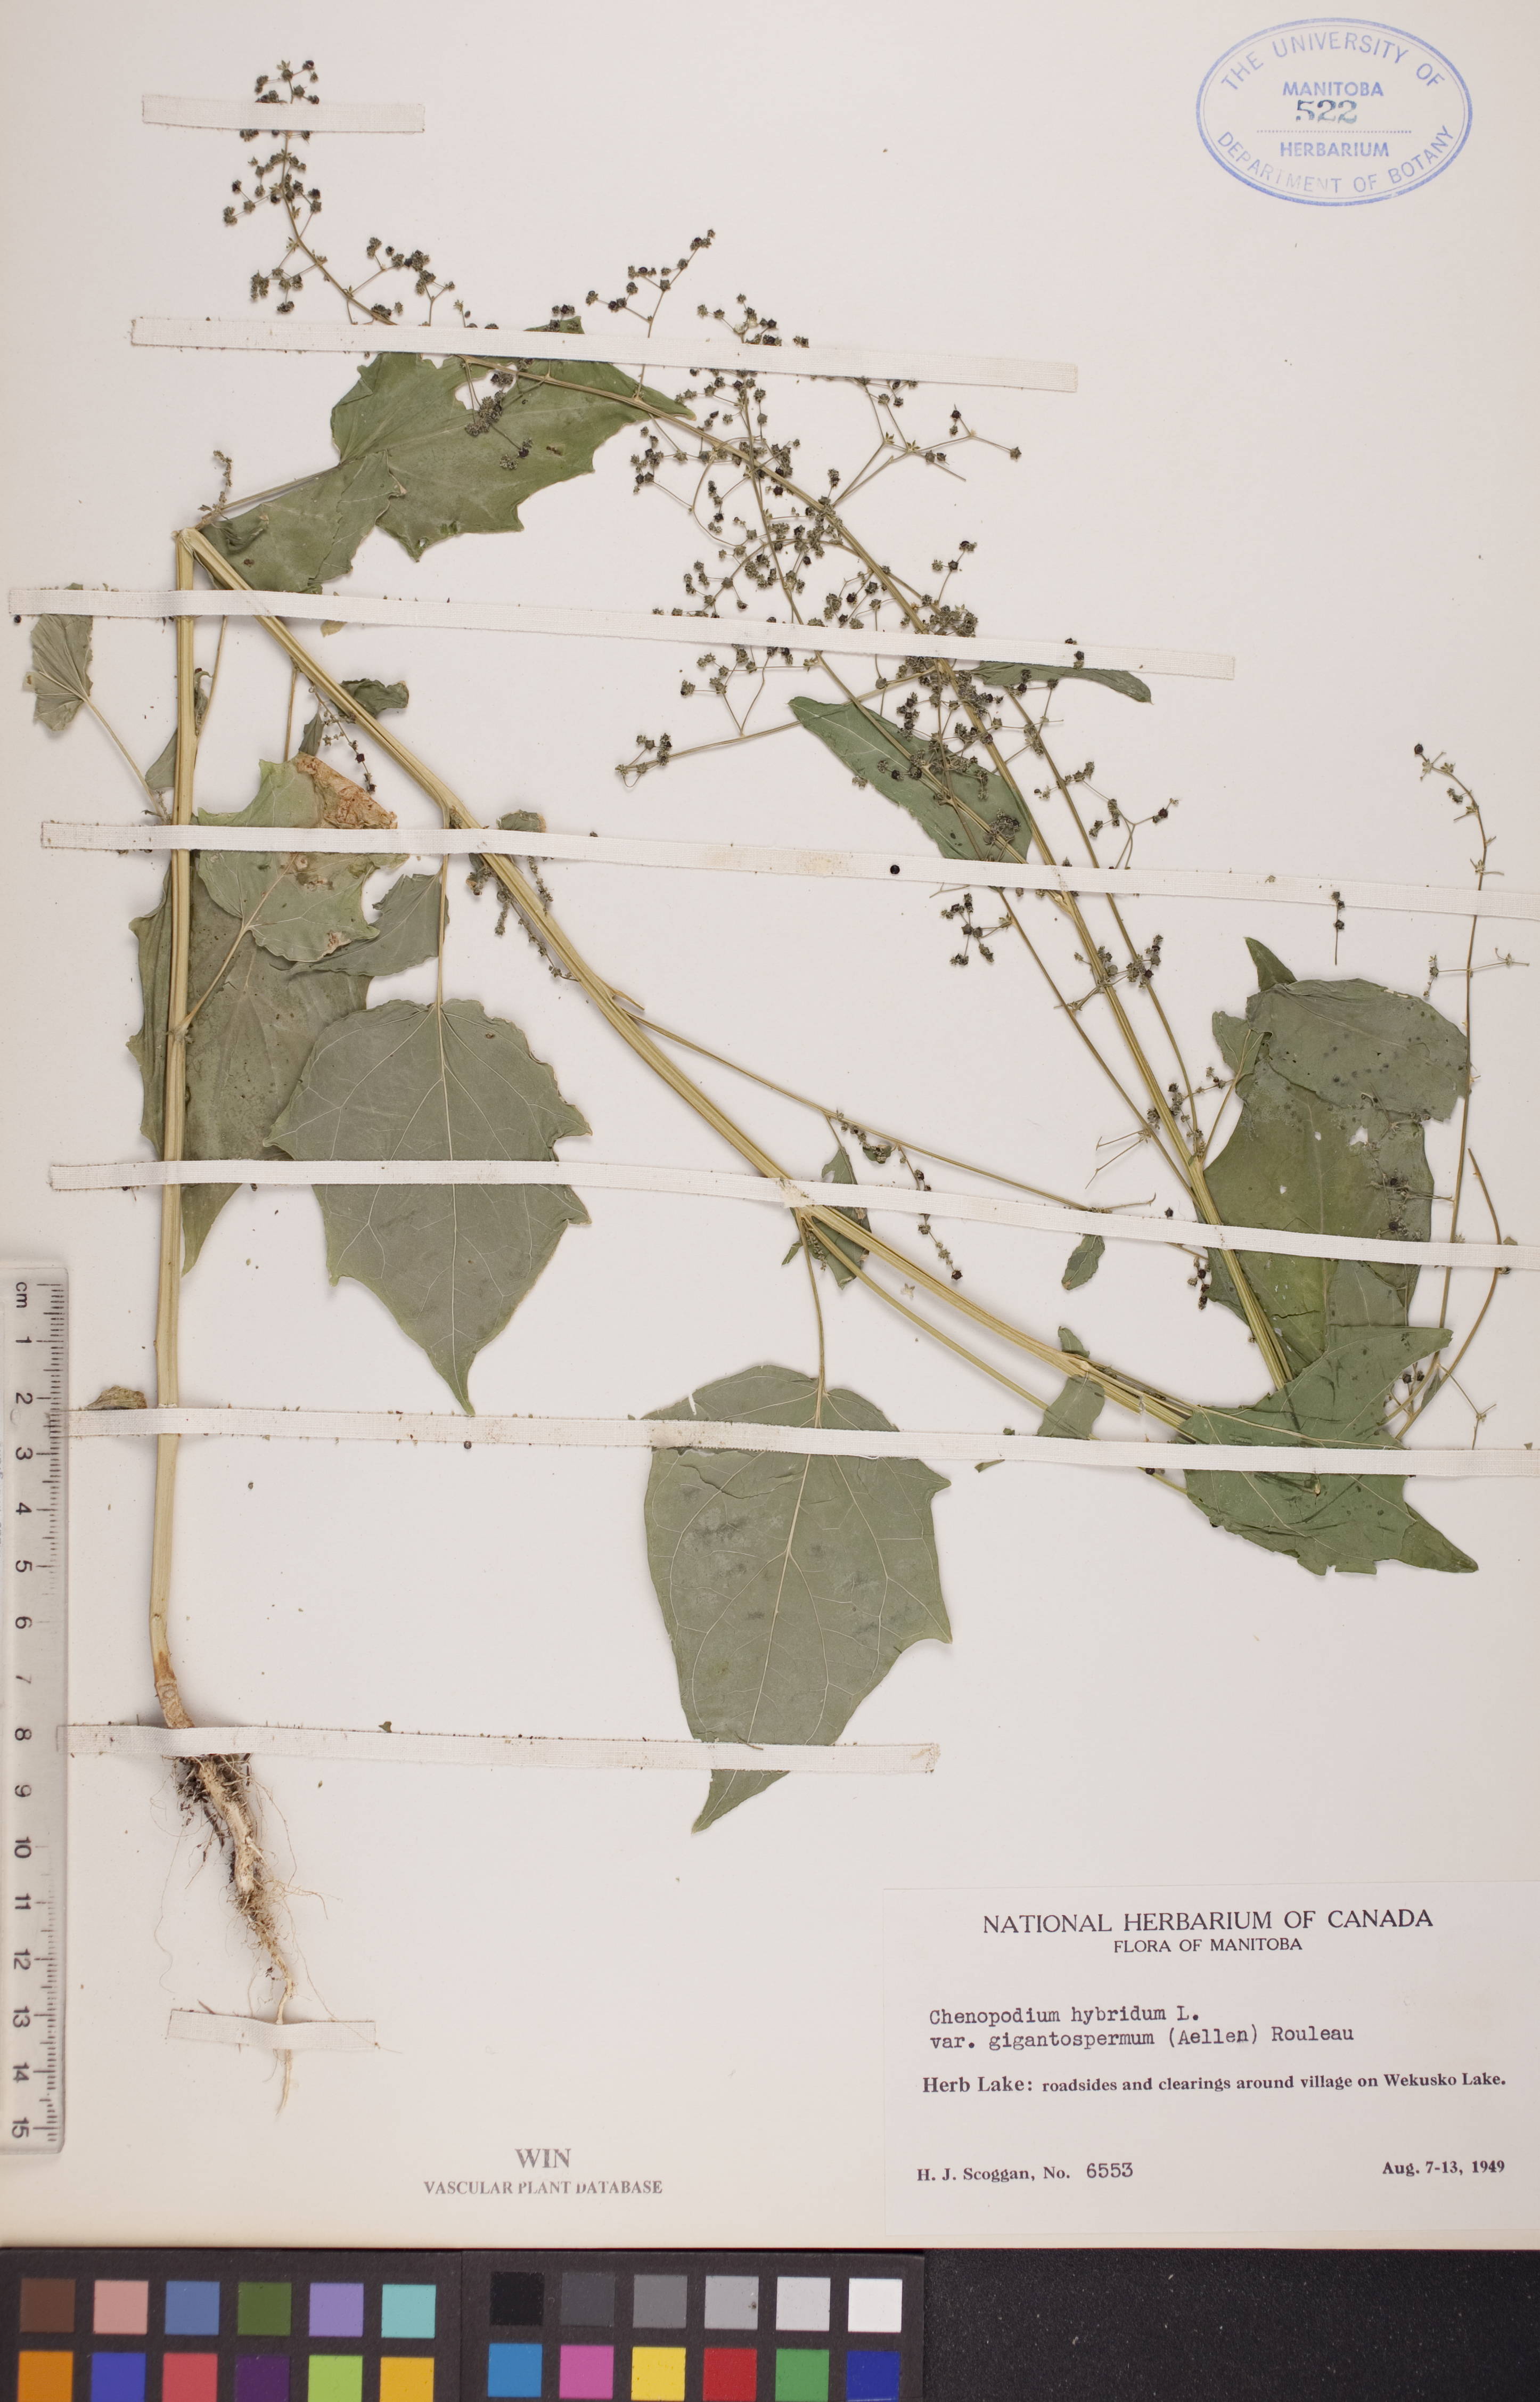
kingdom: Plantae
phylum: Tracheophyta
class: Magnoliopsida
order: Caryophyllales
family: Amaranthaceae
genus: Chenopodiastrum
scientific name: Chenopodiastrum simplex
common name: Large-seed goosefoot
